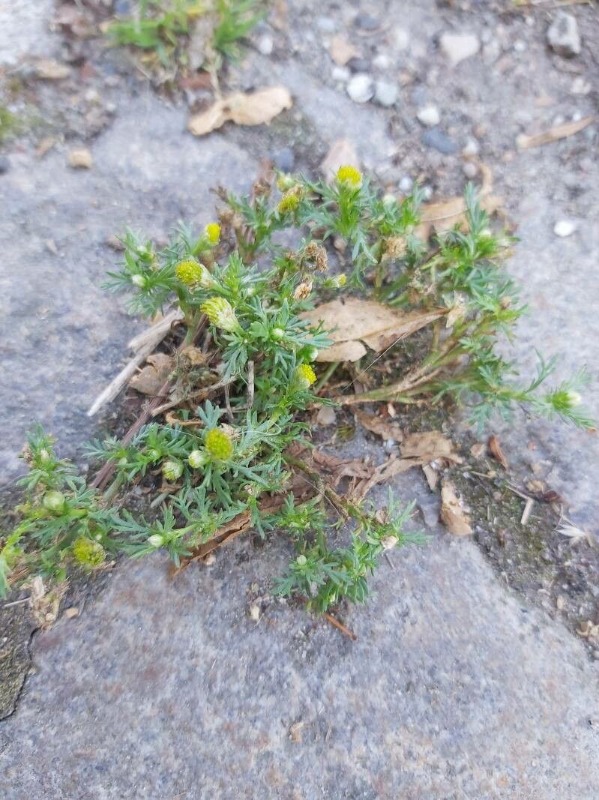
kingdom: Plantae
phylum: Tracheophyta
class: Magnoliopsida
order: Asterales
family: Asteraceae
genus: Matricaria
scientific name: Matricaria discoidea
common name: Skive-kamille
